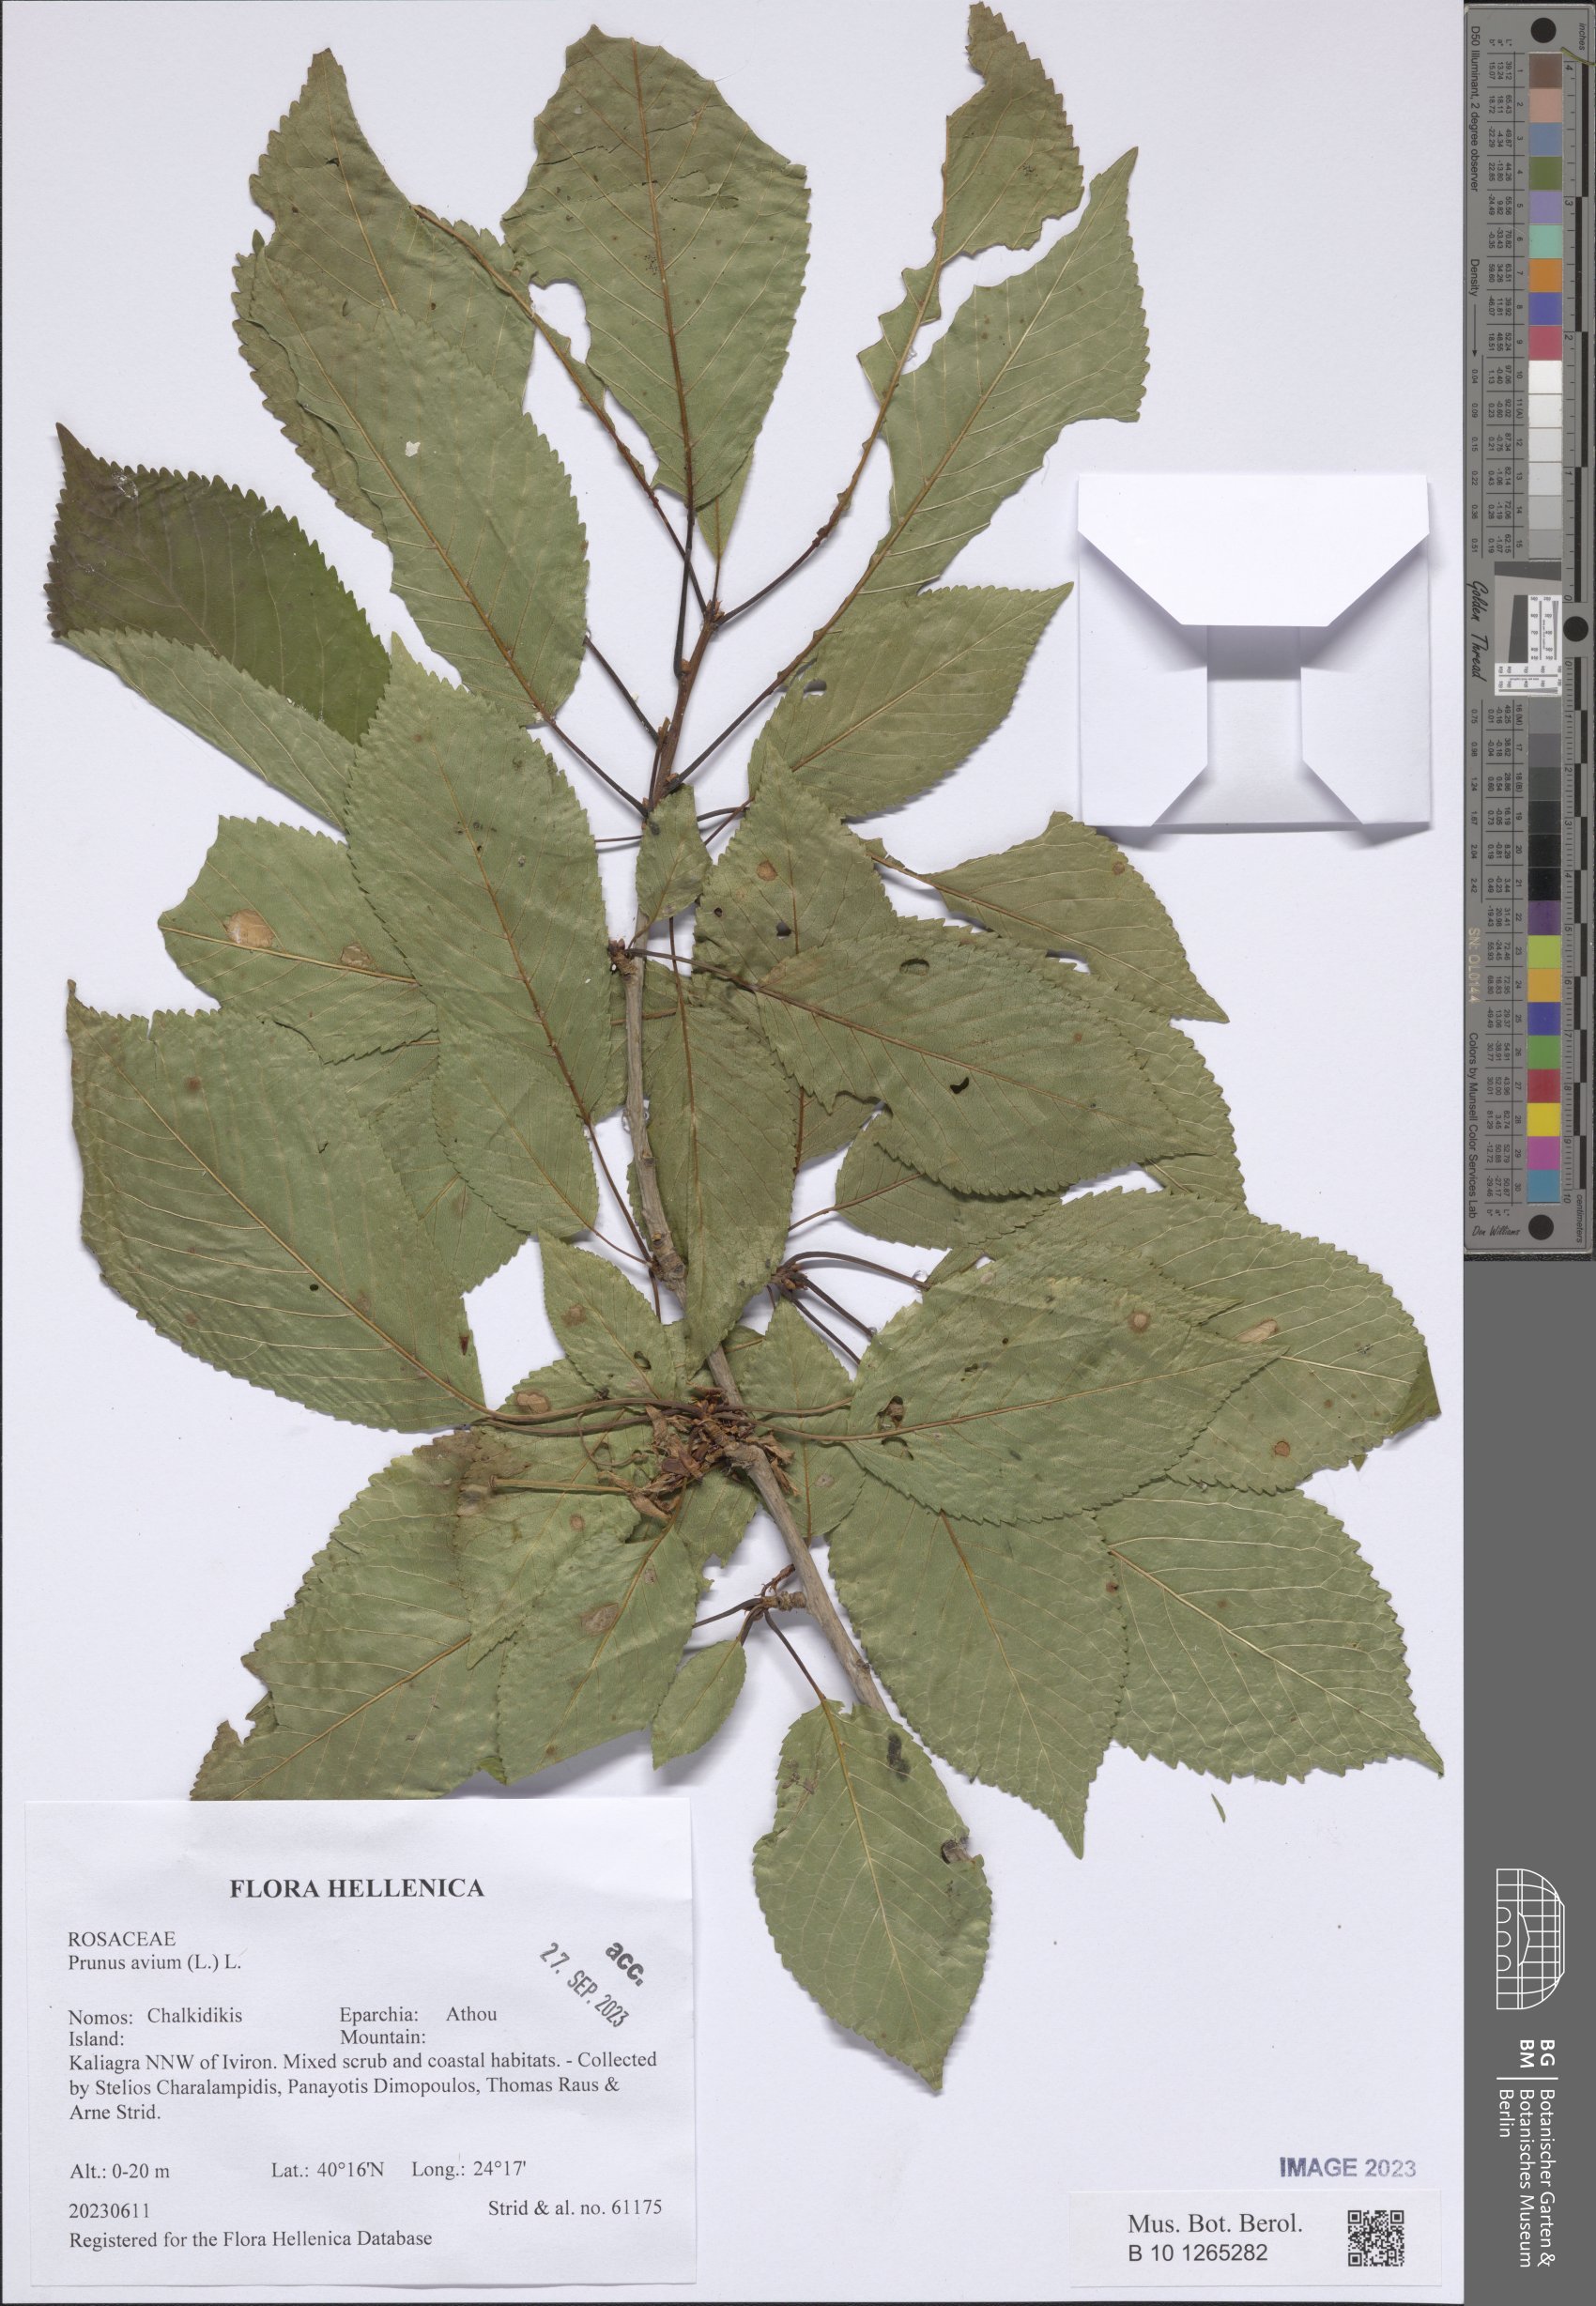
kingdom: Plantae
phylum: Tracheophyta
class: Magnoliopsida
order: Rosales
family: Rosaceae
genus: Prunus
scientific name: Prunus avium
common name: Sweet cherry
